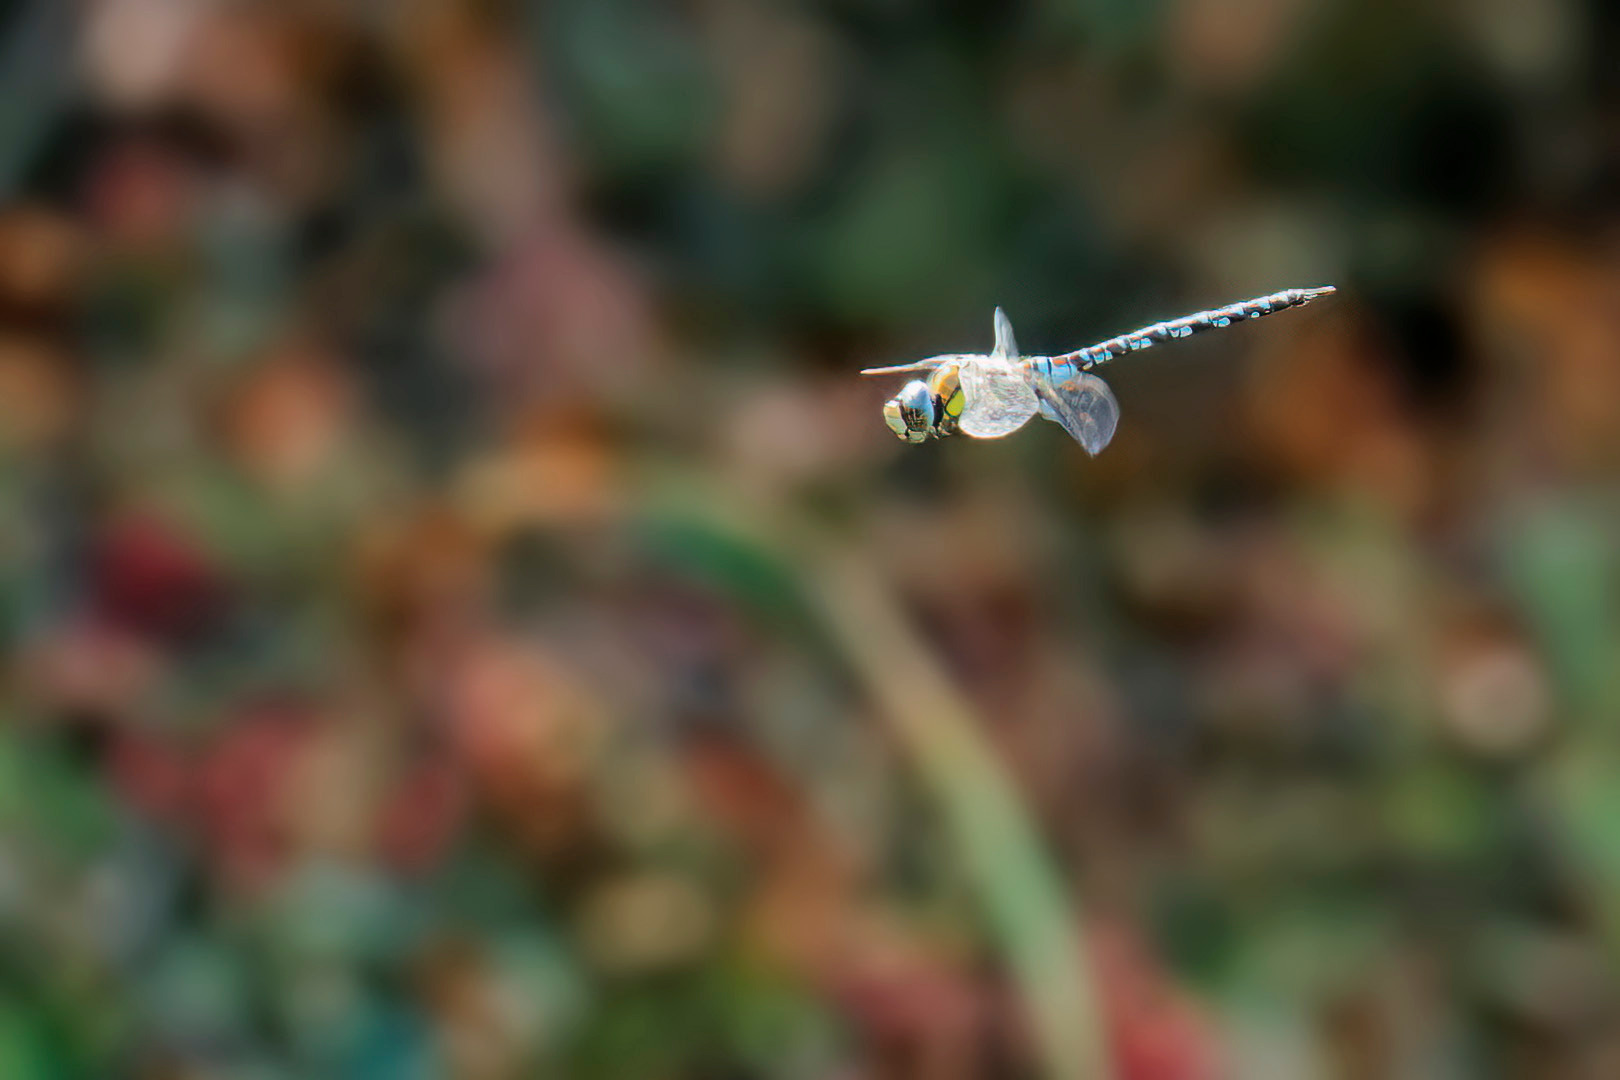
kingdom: Animalia
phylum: Arthropoda
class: Insecta
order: Odonata
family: Aeshnidae
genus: Aeshna
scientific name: Aeshna mixta
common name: Efterårs-mosaikguldsmed
